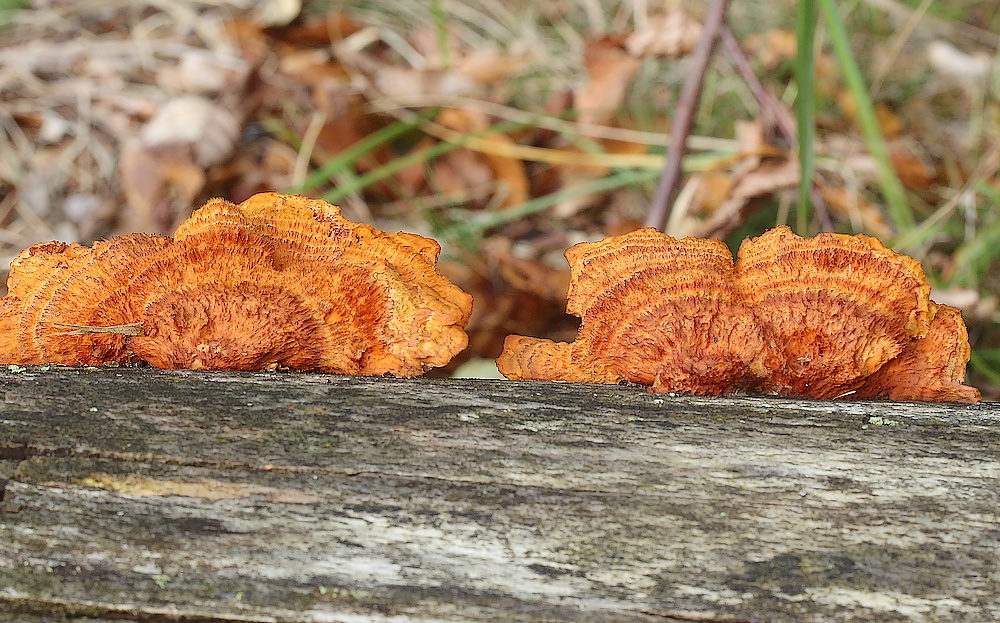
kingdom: Fungi
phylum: Basidiomycota
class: Agaricomycetes
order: Polyporales
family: Pycnoporellaceae
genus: Pycnoporellus
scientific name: Pycnoporellus fulgens
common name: flammeporesvamp
